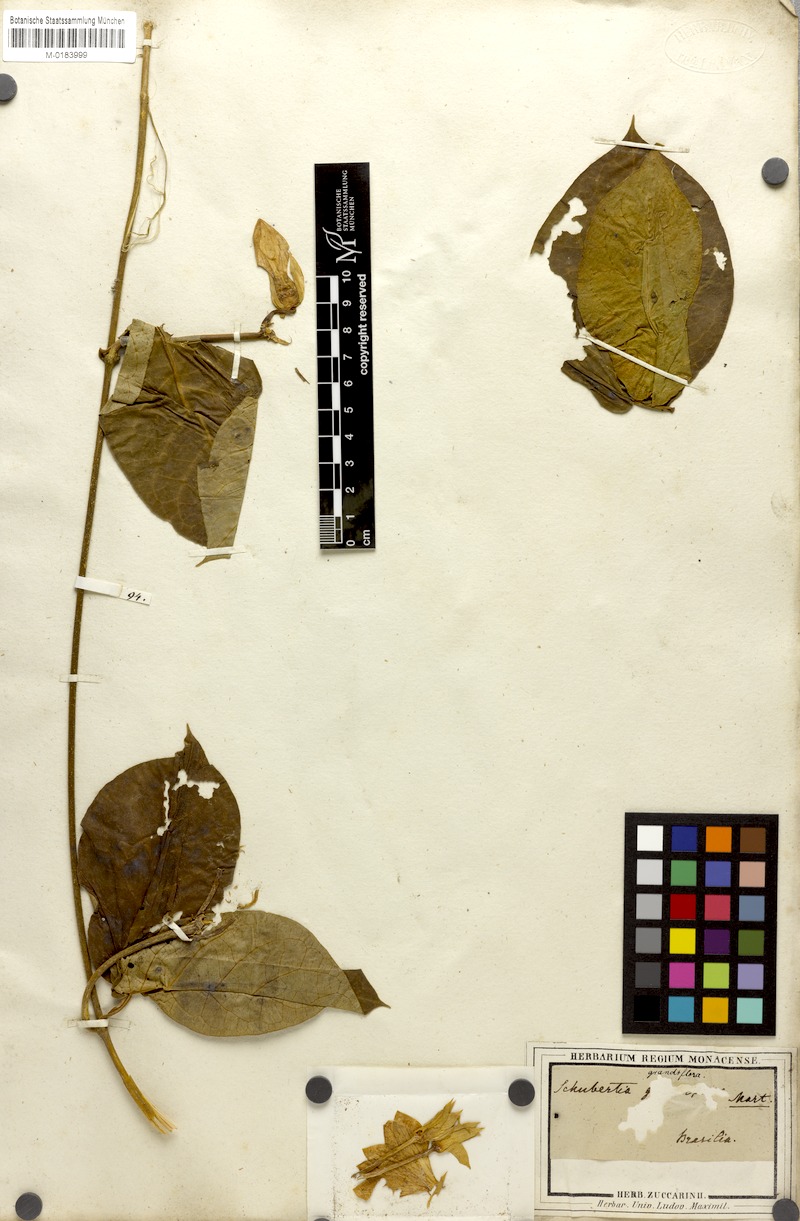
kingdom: Plantae
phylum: Tracheophyta
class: Magnoliopsida
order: Gentianales
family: Apocynaceae
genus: Macroscepis
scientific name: Macroscepis grandiflora
